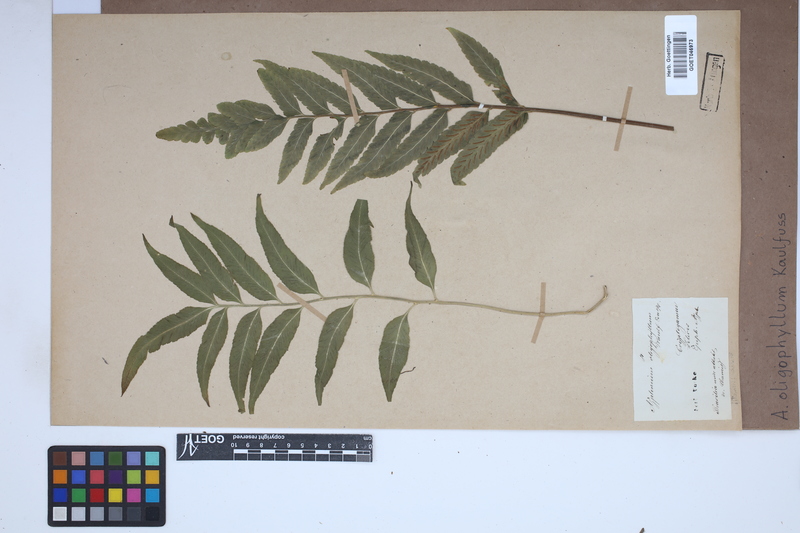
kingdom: Plantae
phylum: Tracheophyta
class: Polypodiopsida
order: Polypodiales
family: Aspleniaceae
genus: Asplenium
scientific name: Asplenium oligophyllum
